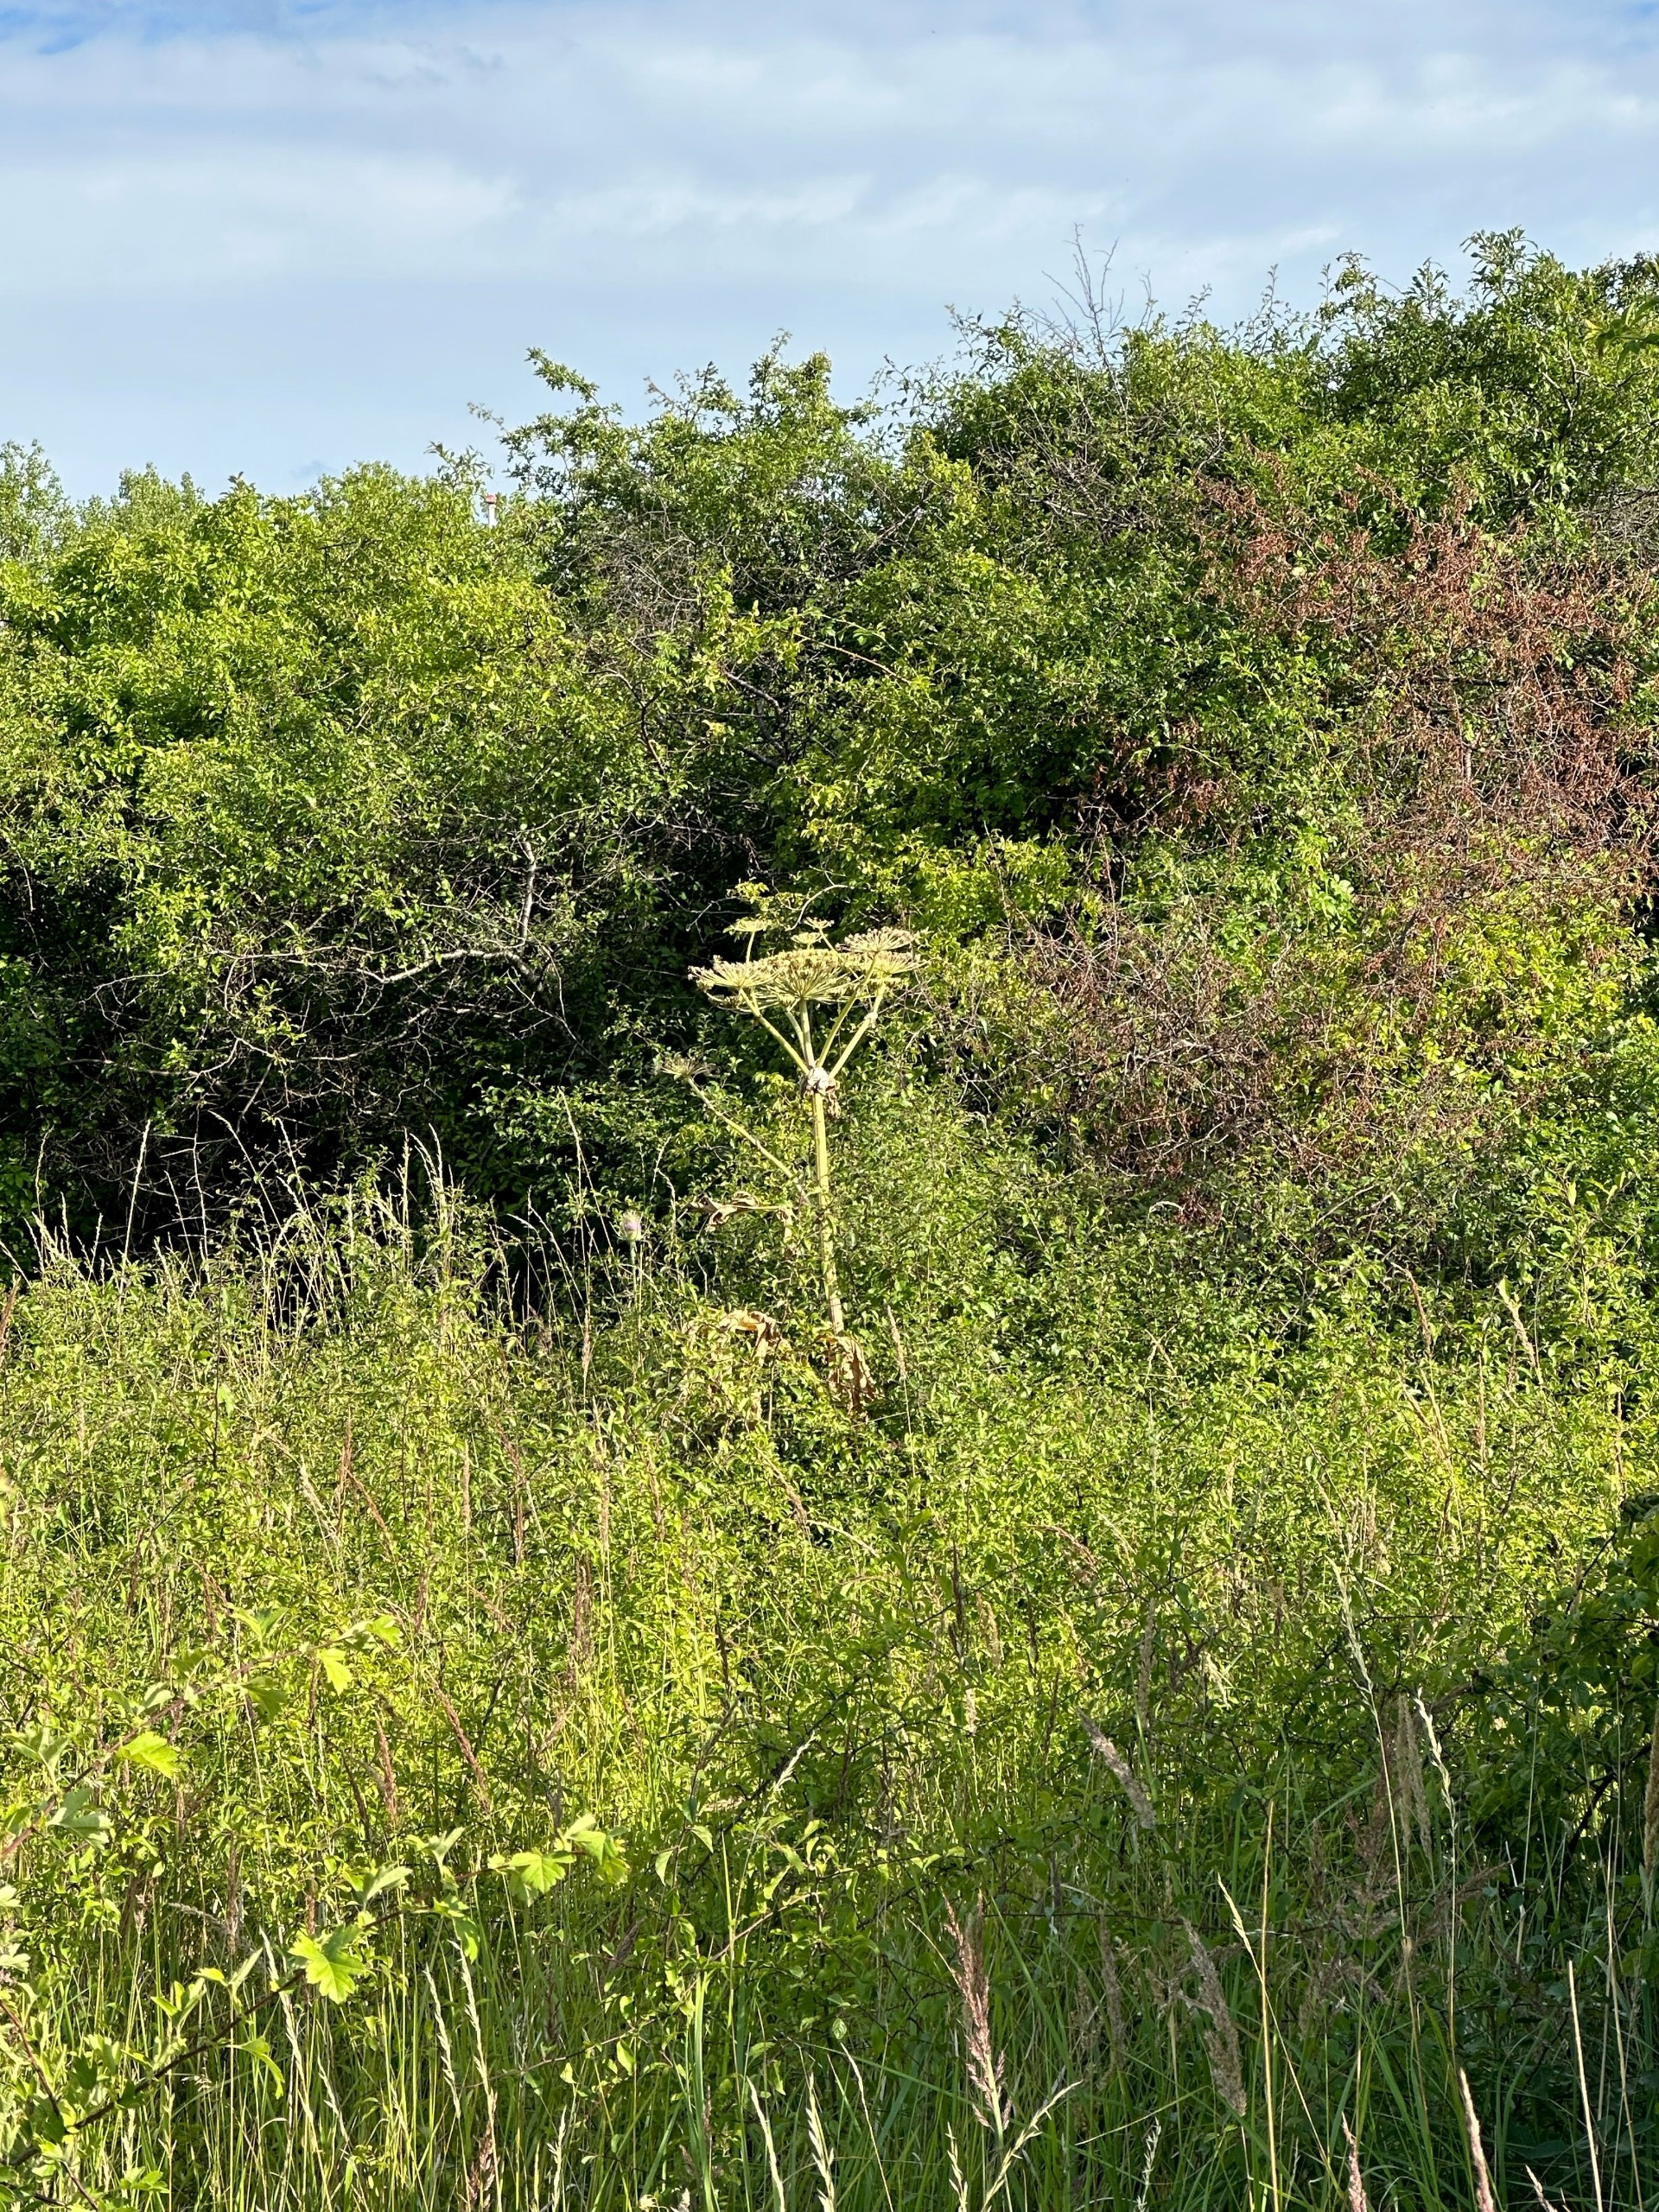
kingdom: Plantae
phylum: Tracheophyta
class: Magnoliopsida
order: Apiales
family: Apiaceae
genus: Heracleum
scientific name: Heracleum mantegazzianum
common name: Kæmpe-bjørneklo
